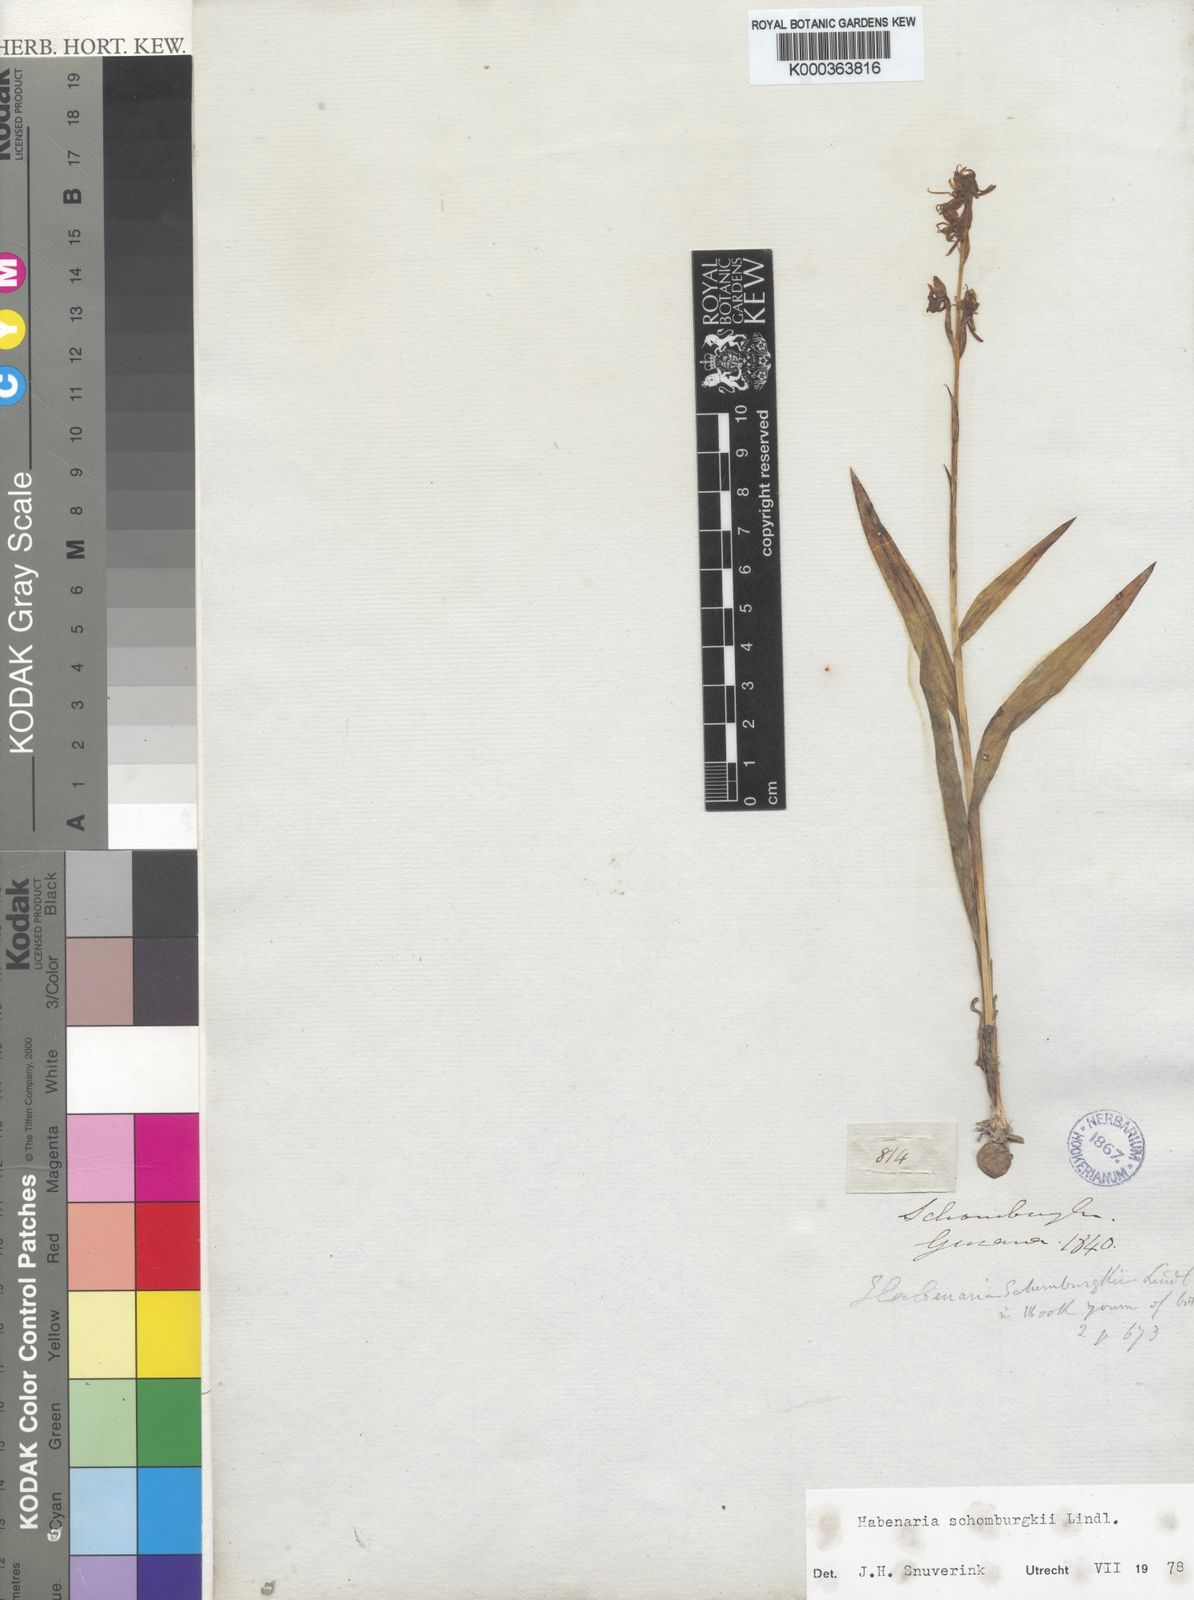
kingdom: Plantae
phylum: Tracheophyta
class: Liliopsida
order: Asparagales
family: Orchidaceae
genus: Habenaria
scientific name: Habenaria
